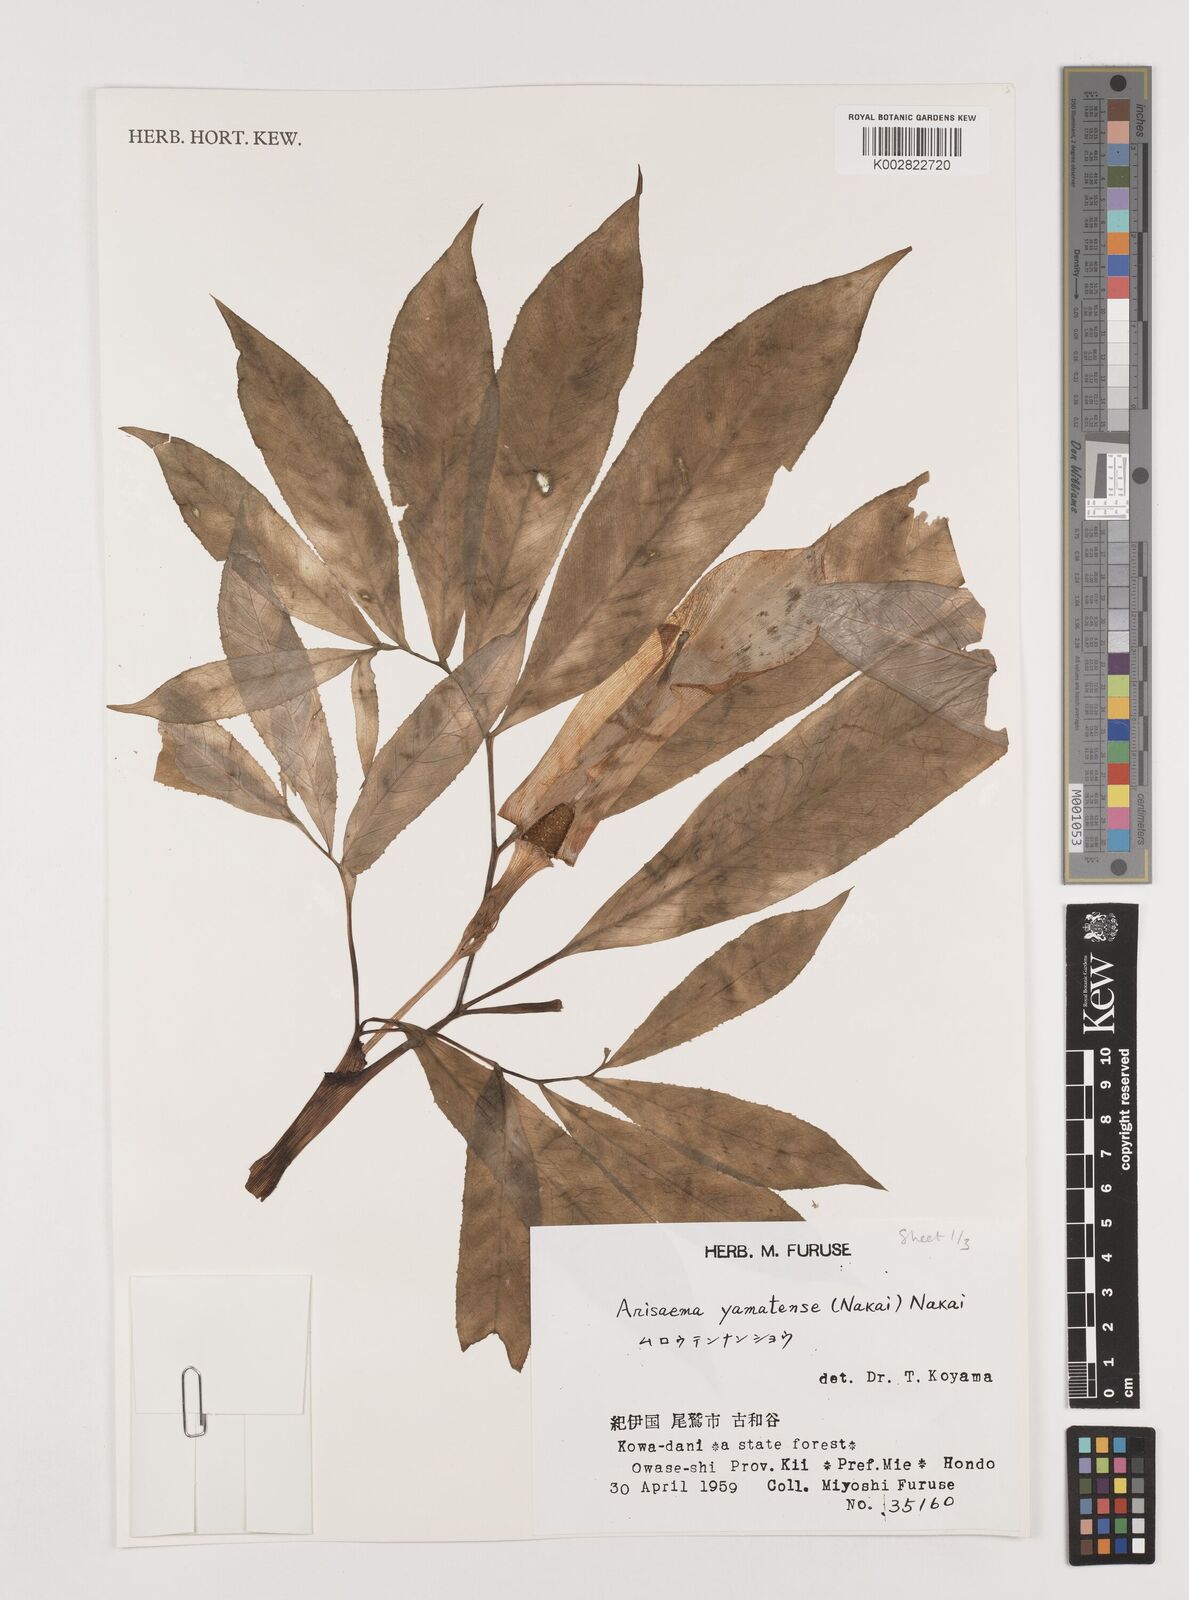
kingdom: Plantae
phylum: Tracheophyta
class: Liliopsida
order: Alismatales
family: Araceae
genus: Arisaema
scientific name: Arisaema yamatense
